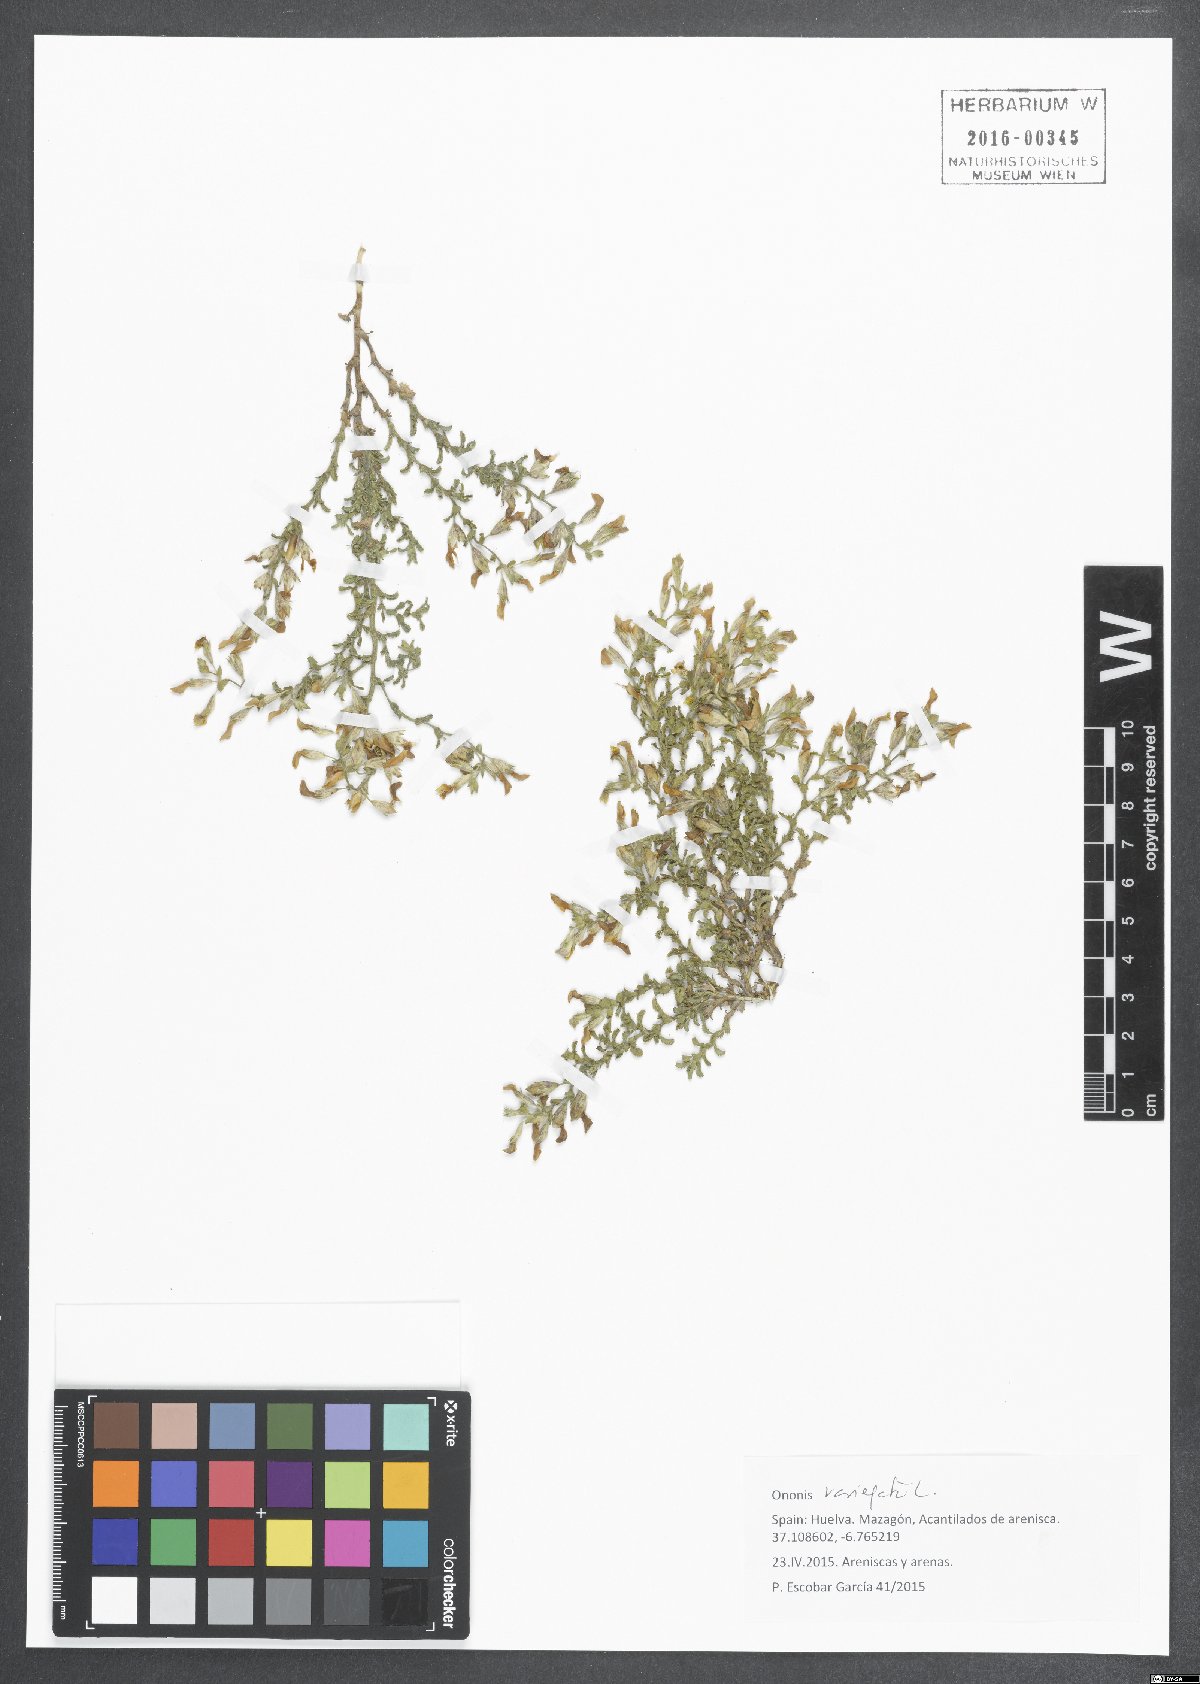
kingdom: Plantae
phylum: Tracheophyta
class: Magnoliopsida
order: Fabales
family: Fabaceae
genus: Ononis
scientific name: Ononis variegata
